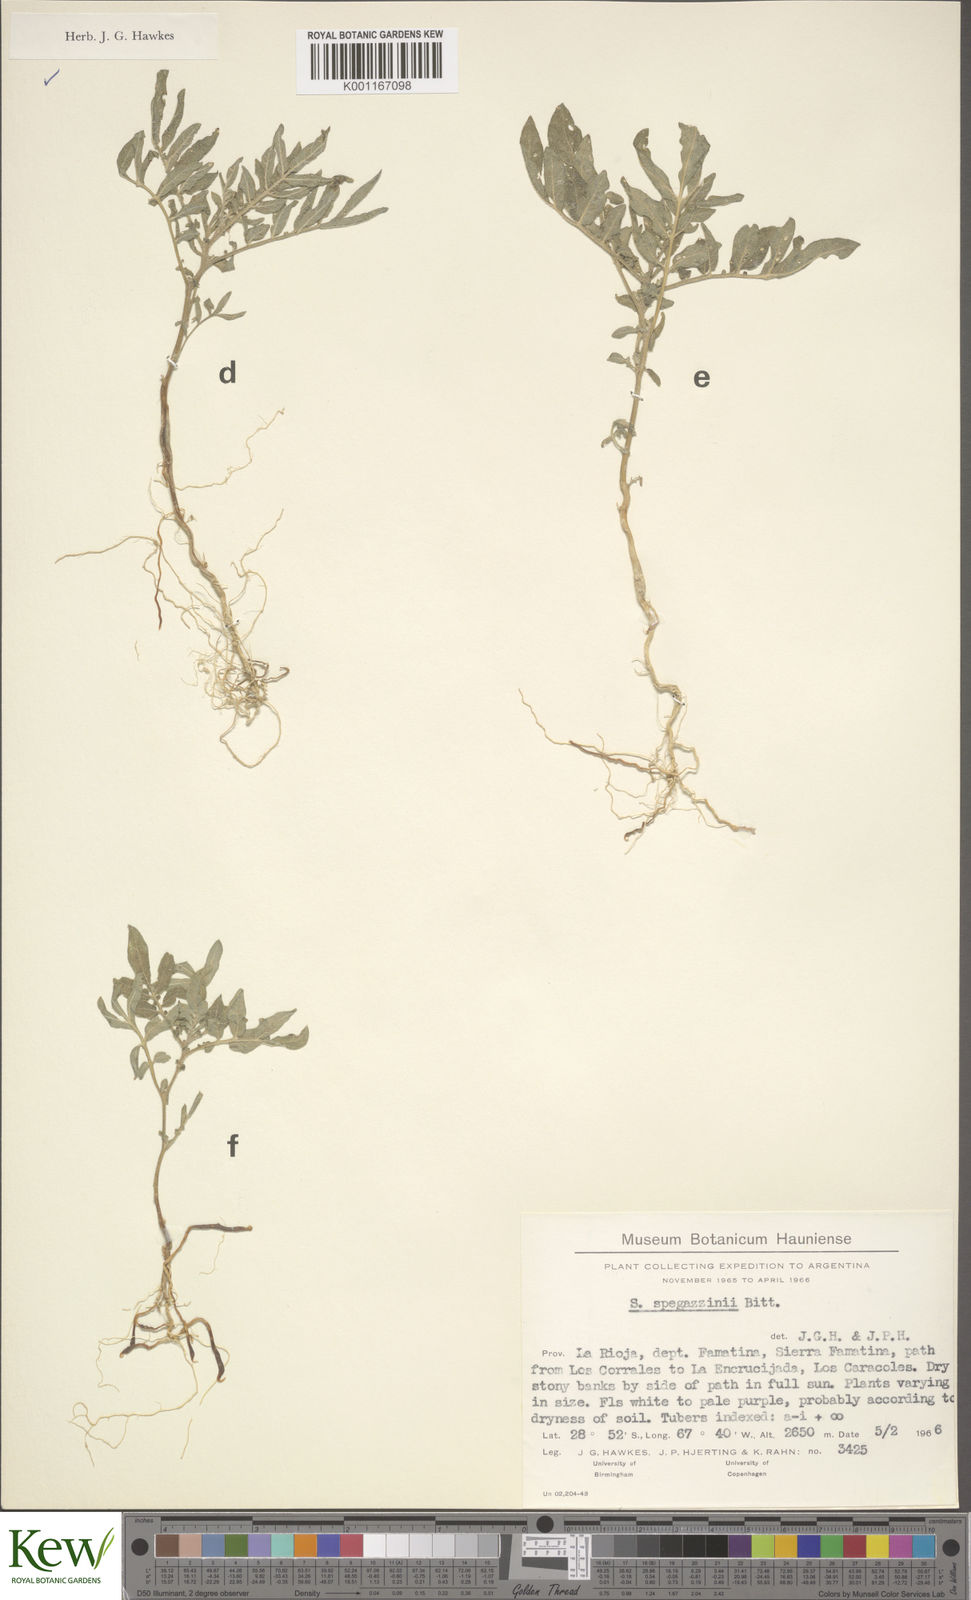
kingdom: Plantae
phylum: Tracheophyta
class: Magnoliopsida
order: Solanales
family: Solanaceae
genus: Solanum
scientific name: Solanum brevicaule
